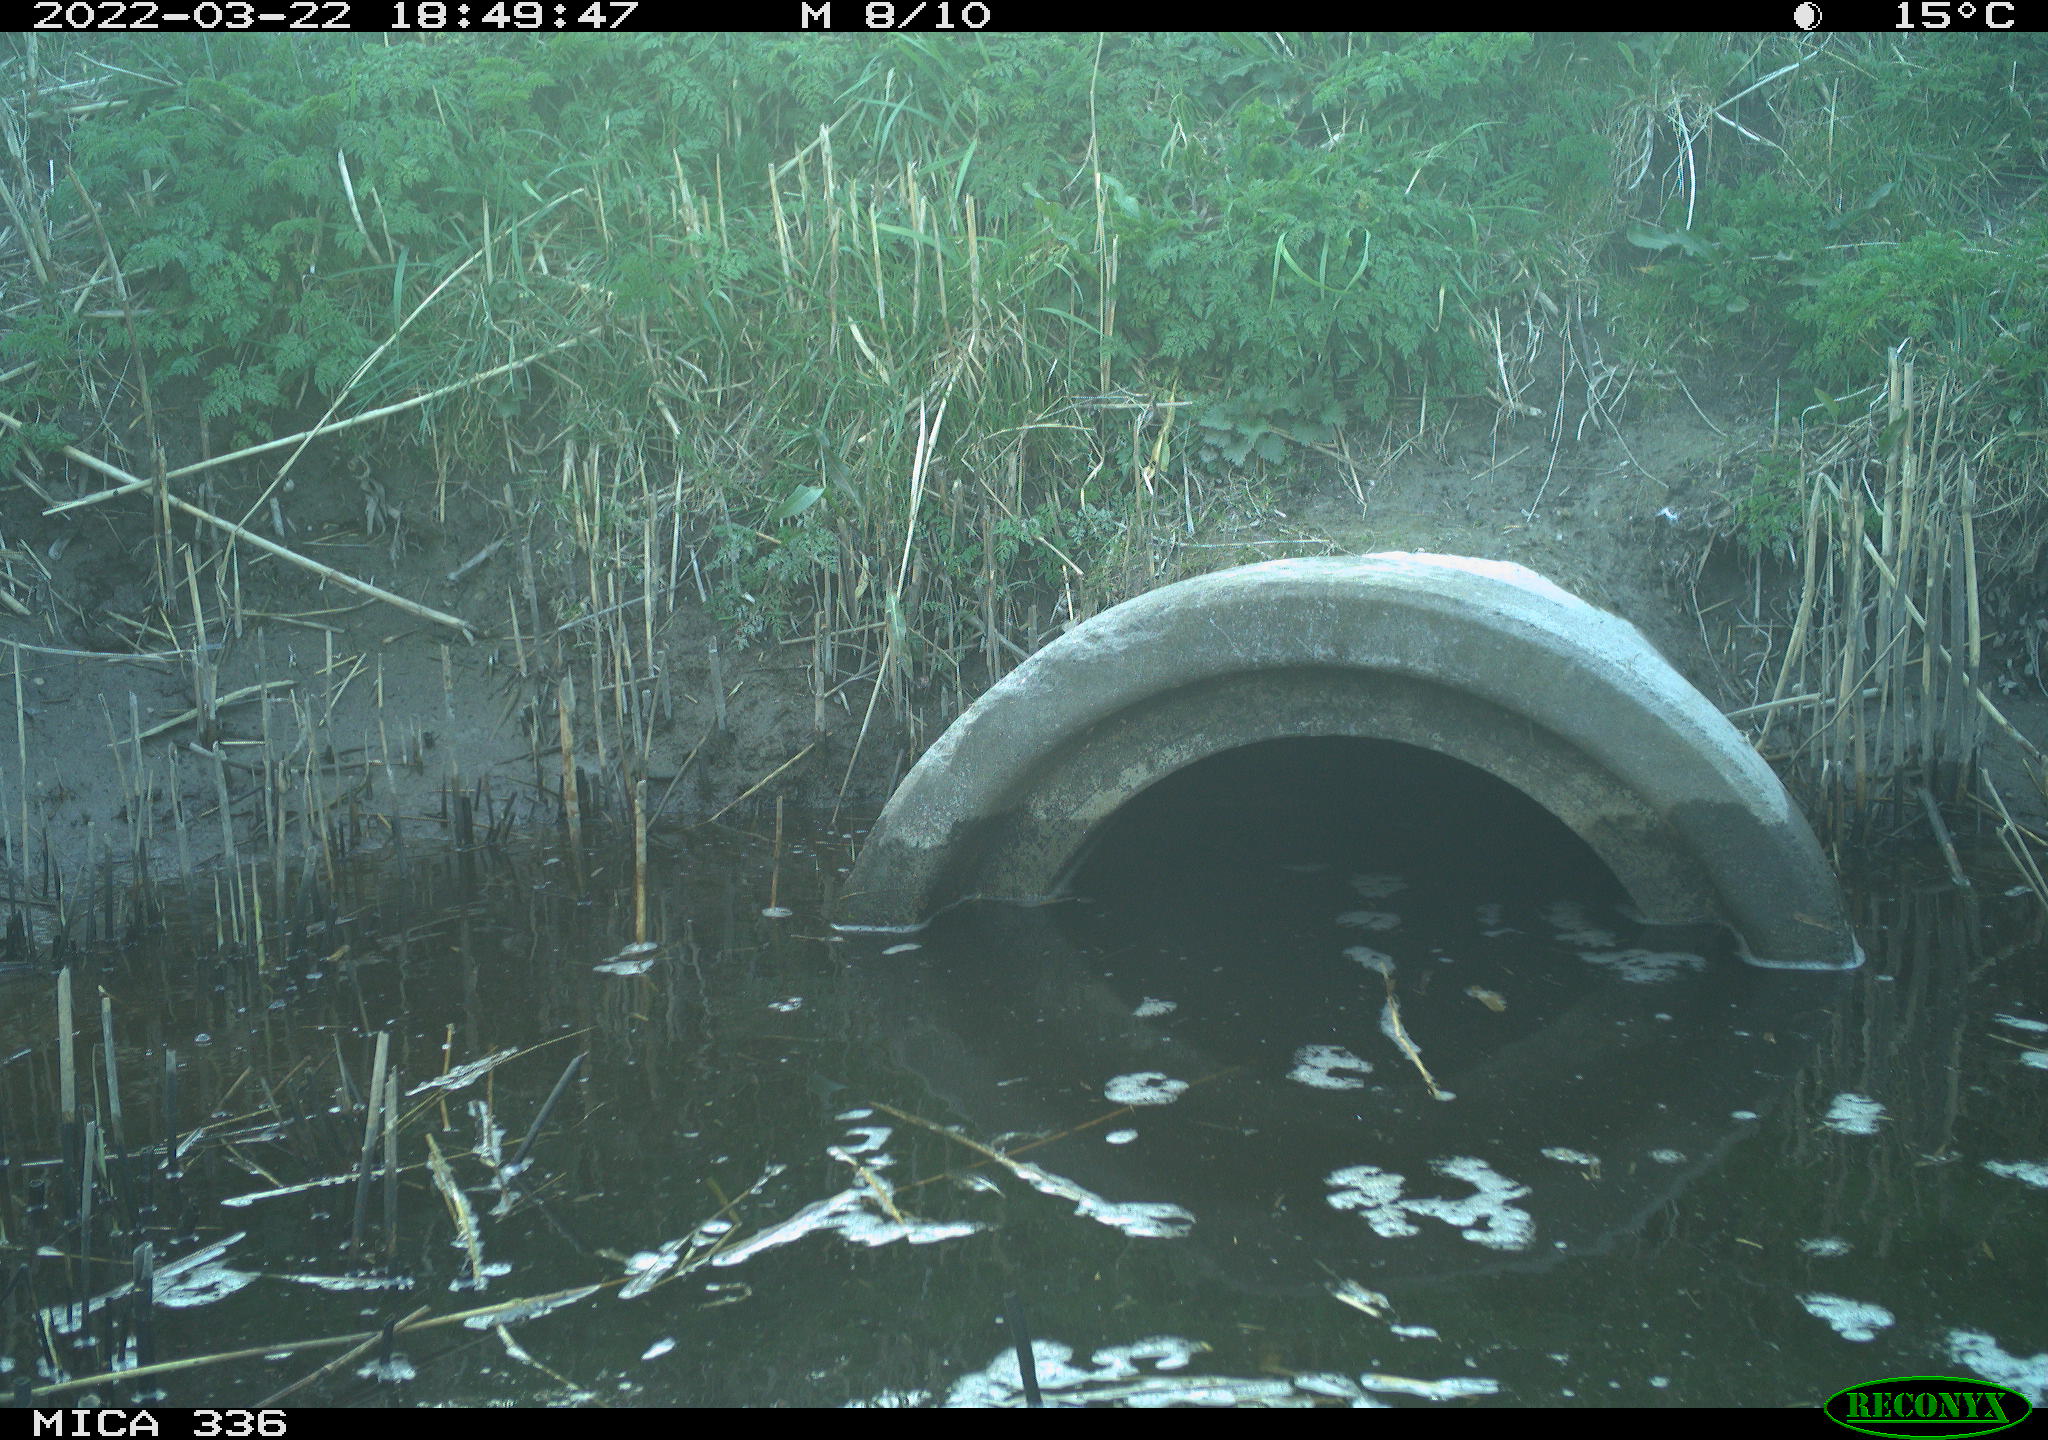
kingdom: Animalia
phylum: Chordata
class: Aves
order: Pelecaniformes
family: Ardeidae
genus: Ardea
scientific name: Ardea cinerea
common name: Grey heron
